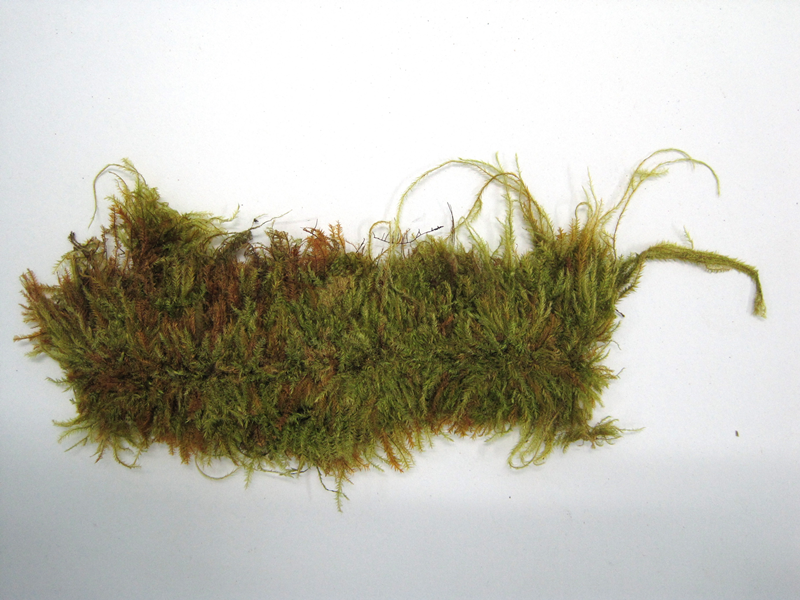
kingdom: Plantae
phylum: Bryophyta
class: Bryopsida
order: Hypnales
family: Pylaisiadelphaceae
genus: Gammiella
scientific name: Gammiella
